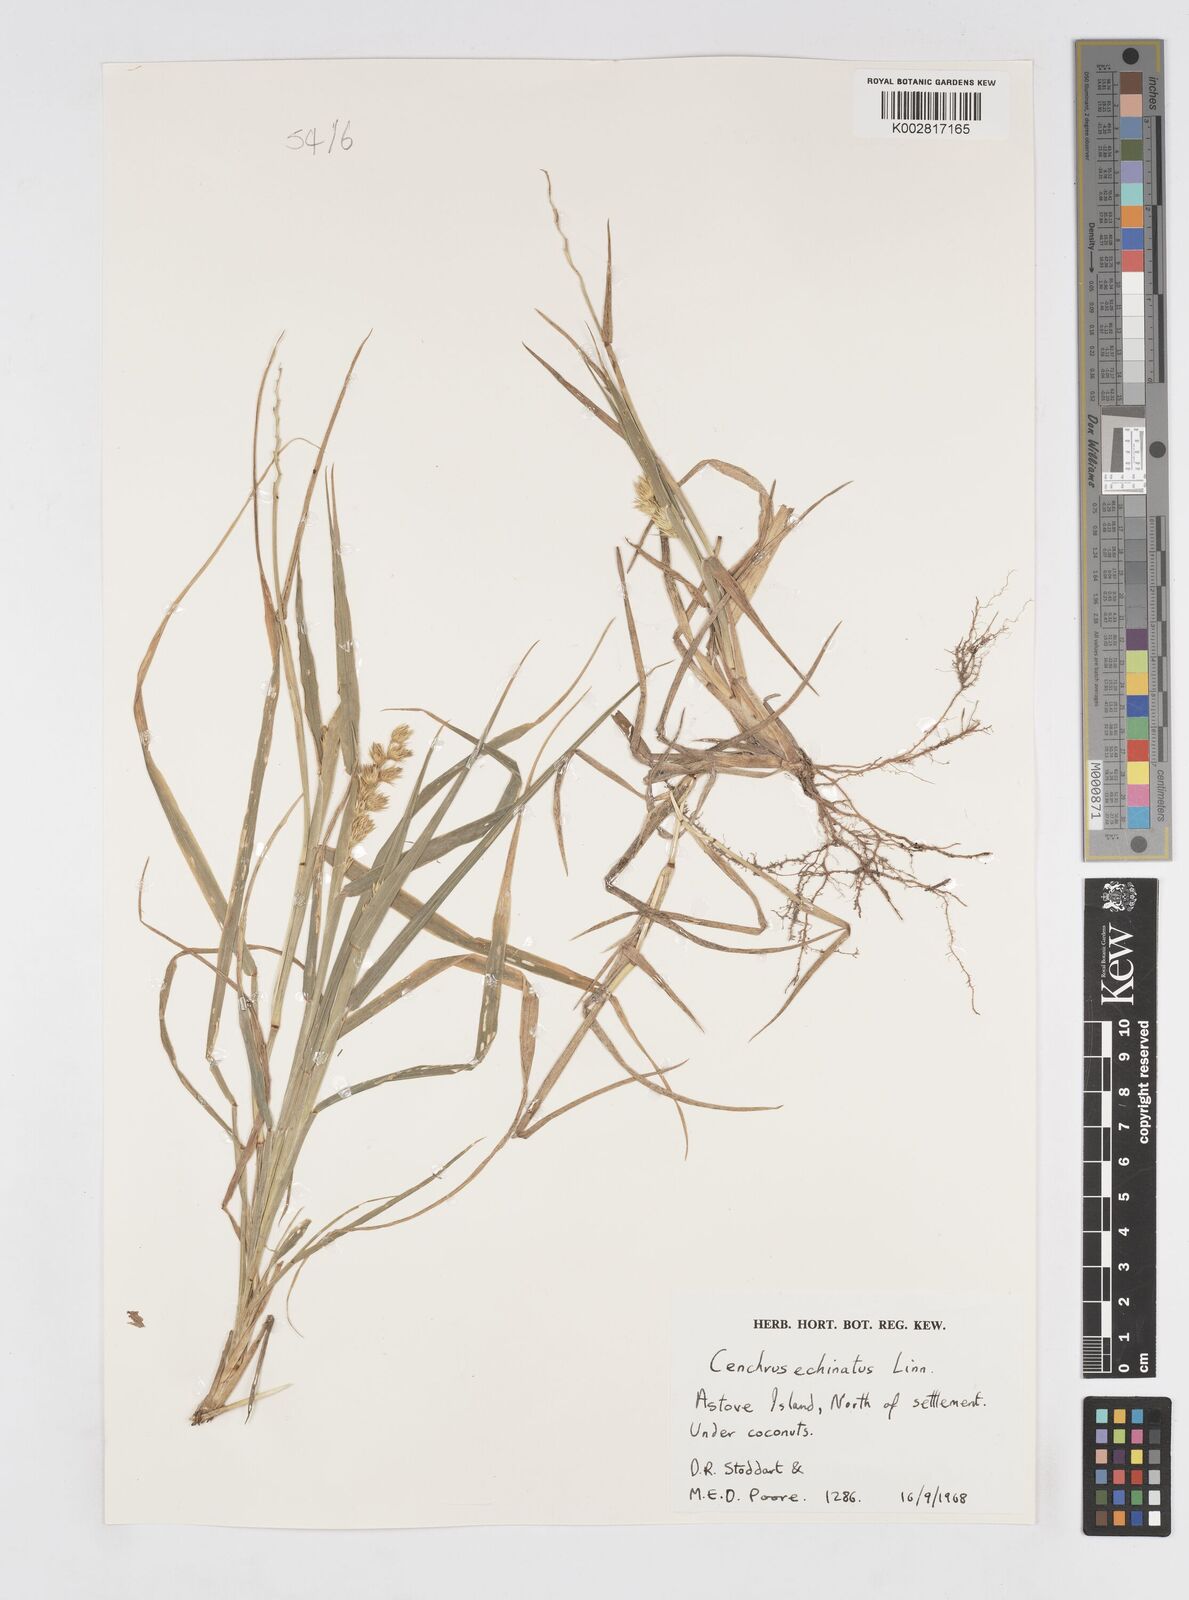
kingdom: Plantae
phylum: Tracheophyta
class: Liliopsida
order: Poales
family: Poaceae
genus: Cenchrus
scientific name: Cenchrus echinatus
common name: Southern sandbur
